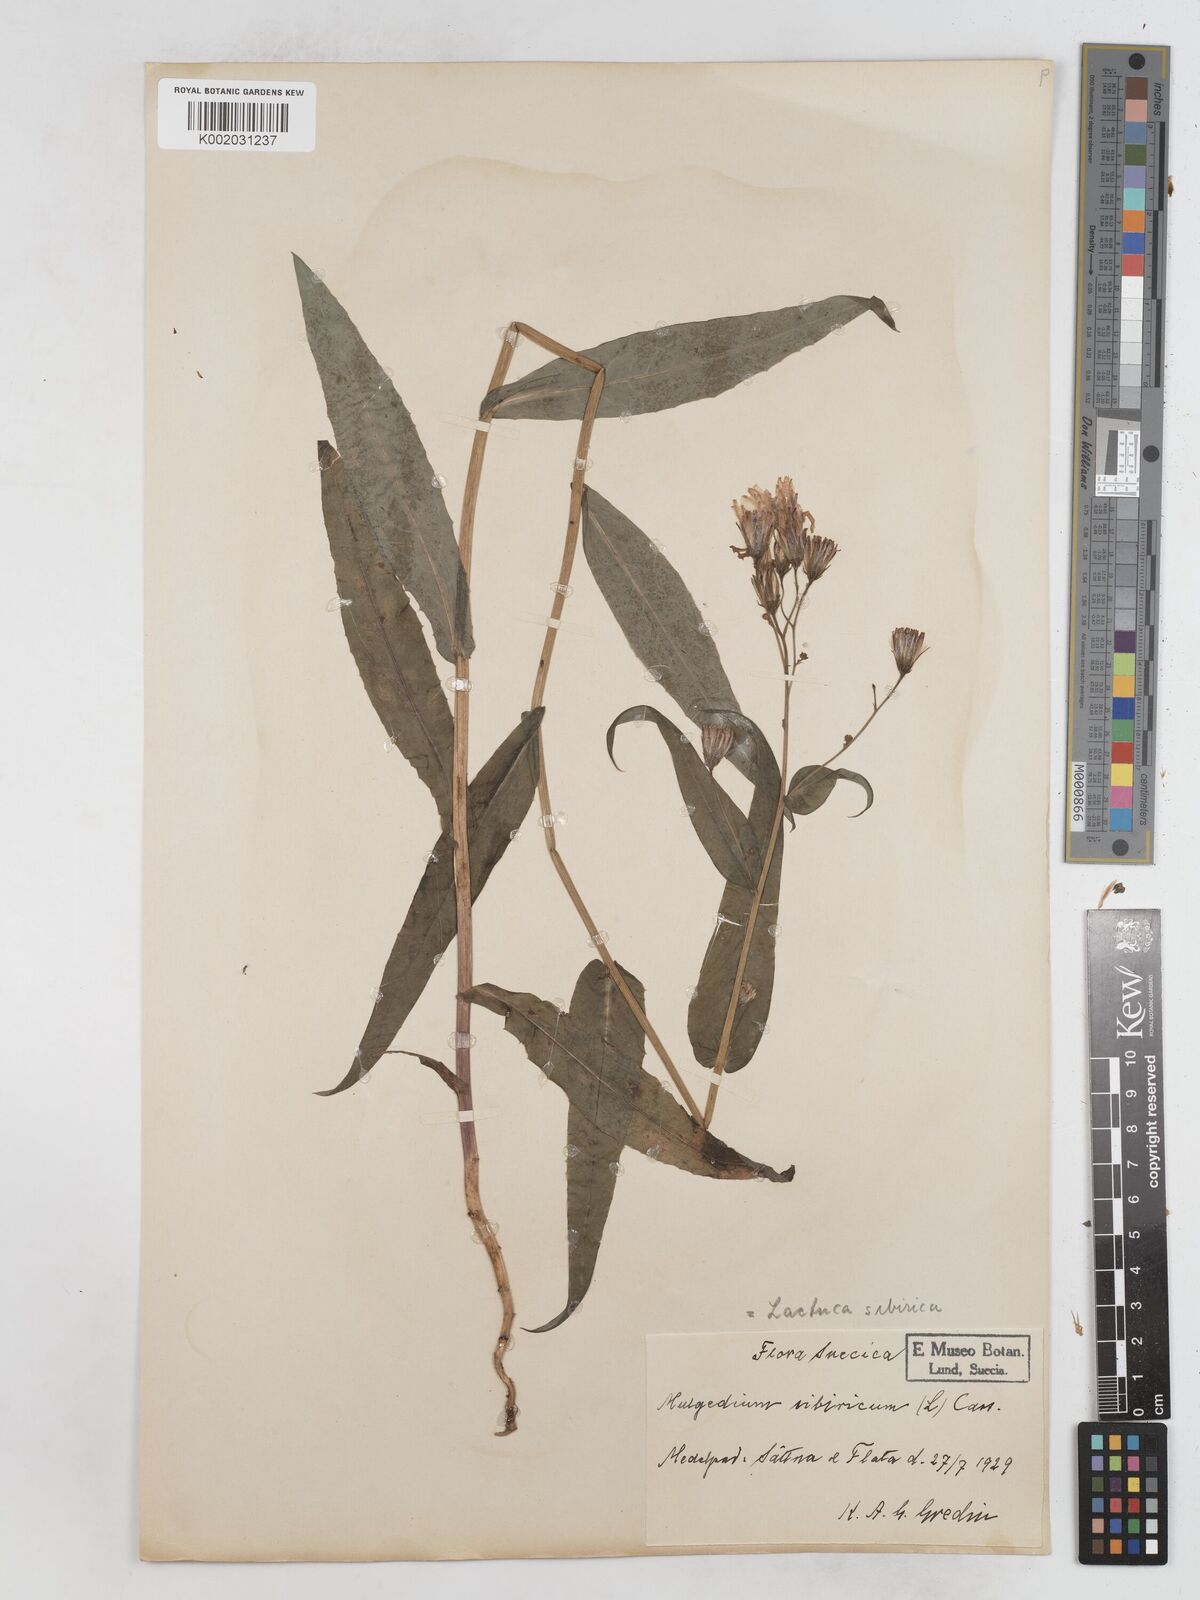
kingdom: Plantae
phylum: Tracheophyta
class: Magnoliopsida
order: Asterales
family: Asteraceae
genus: Lactuca
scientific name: Lactuca sibirica
